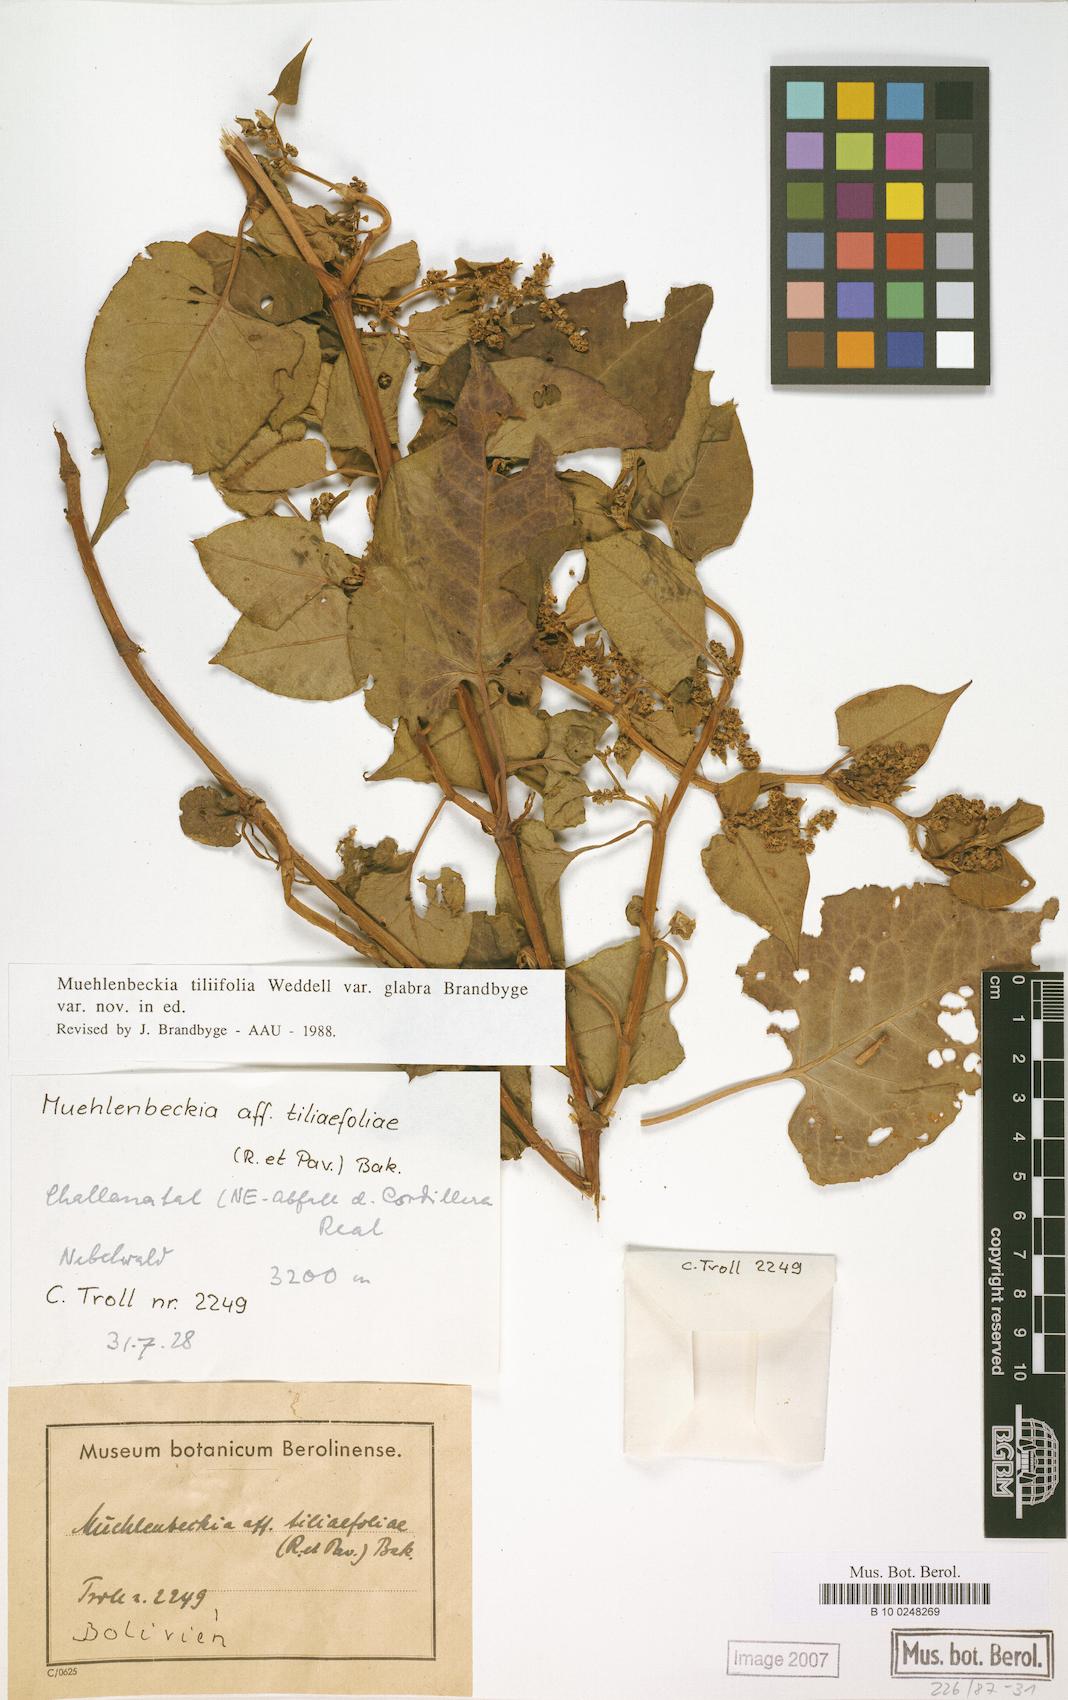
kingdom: Plantae
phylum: Tracheophyta
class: Magnoliopsida
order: Caryophyllales
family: Polygonaceae
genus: Muehlenbeckia
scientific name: Muehlenbeckia tiliifolia
